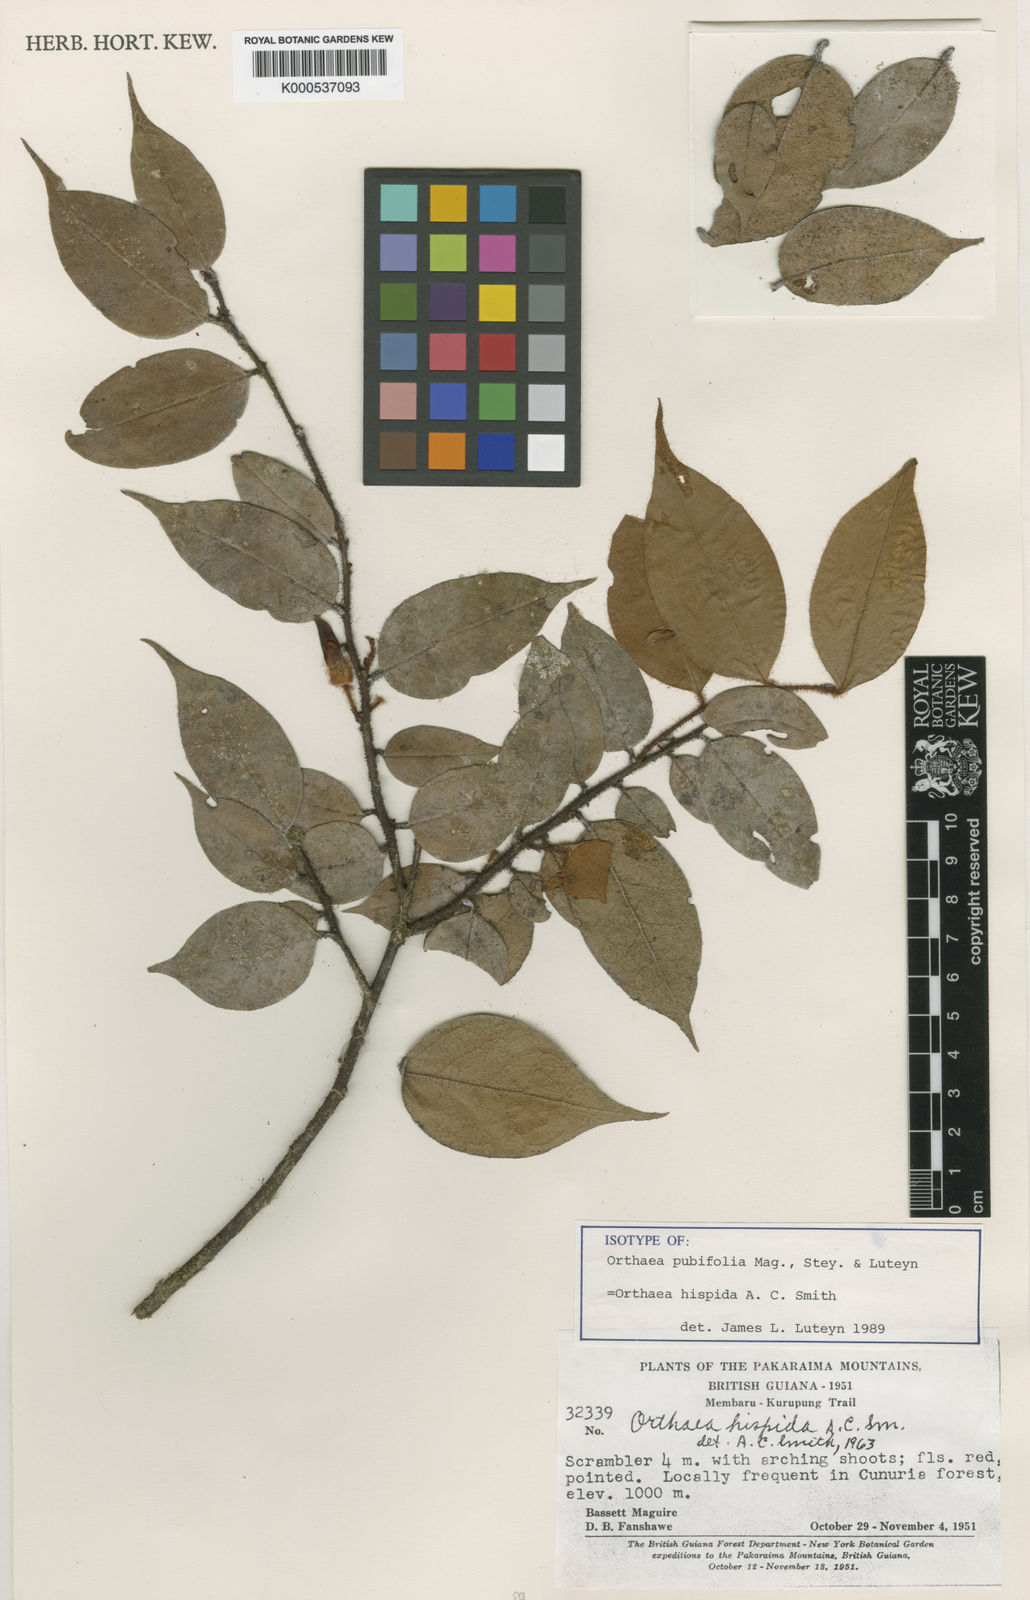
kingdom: Plantae
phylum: Tracheophyta
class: Magnoliopsida
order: Ericales
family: Ericaceae
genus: Orthaea
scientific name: Orthaea hispida
